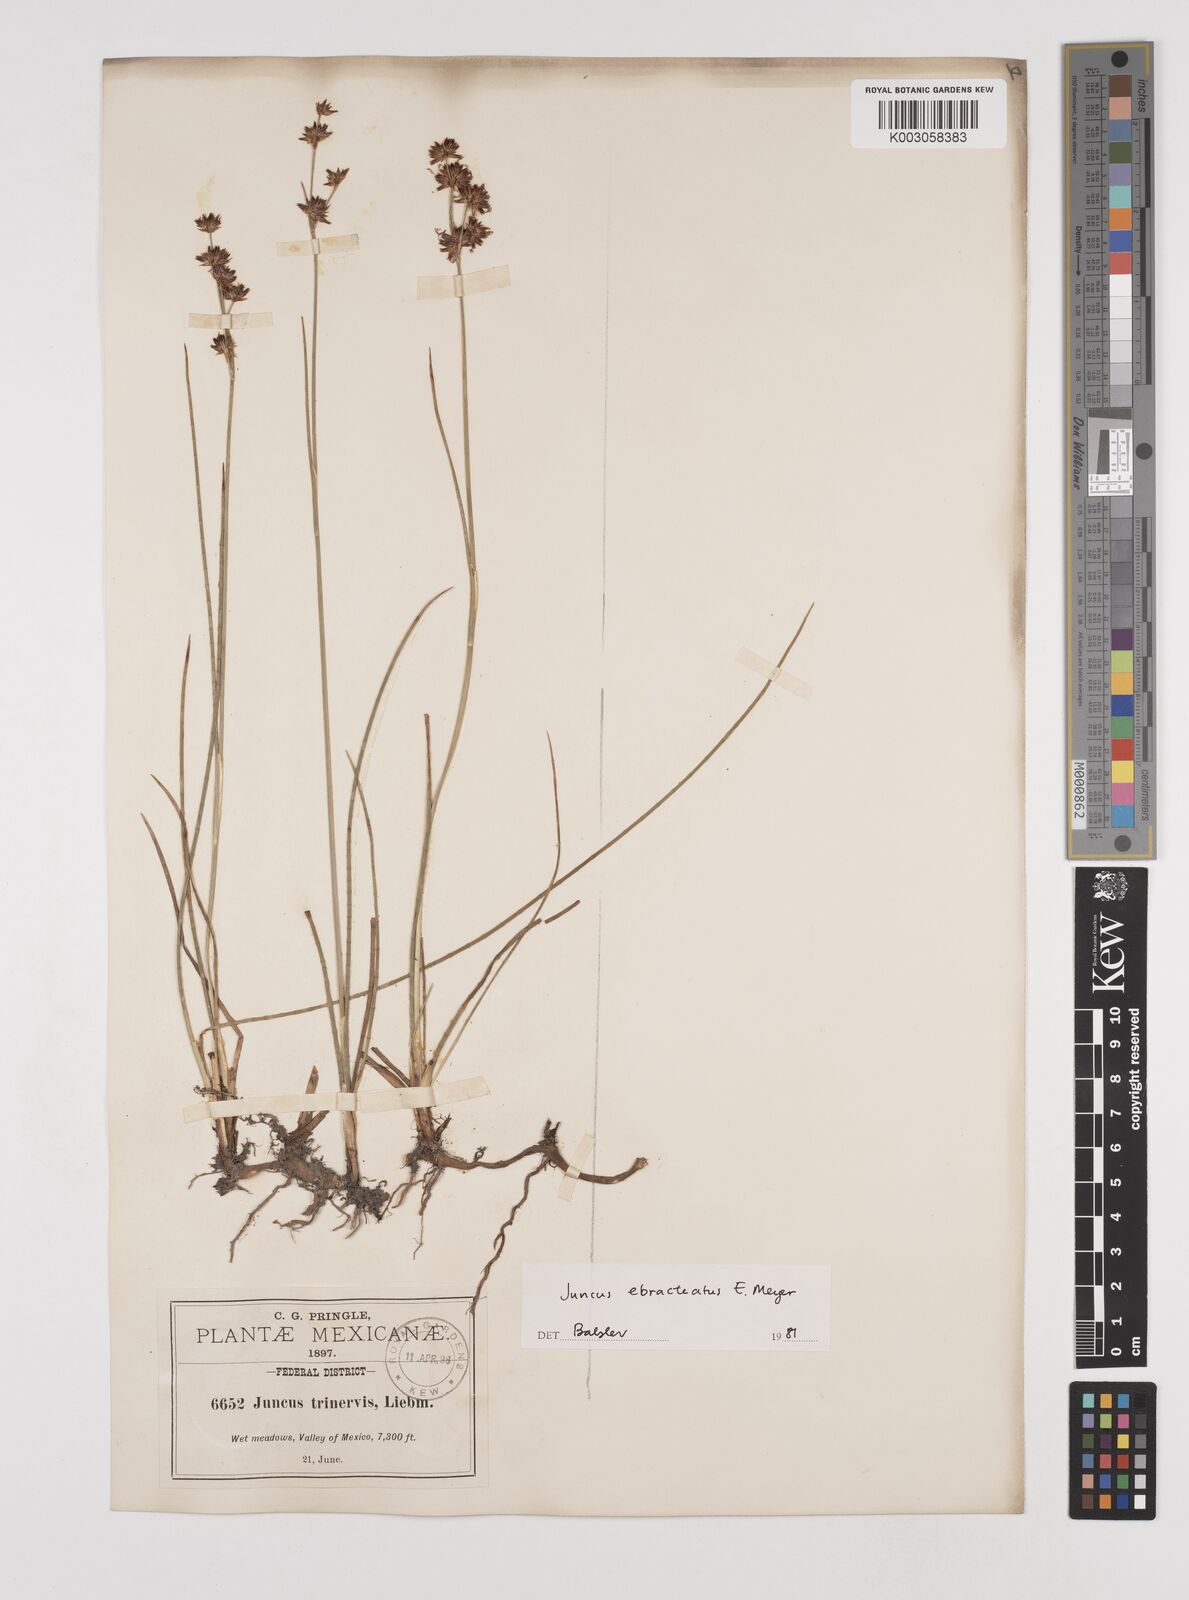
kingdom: Plantae
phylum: Tracheophyta
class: Liliopsida
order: Poales
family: Juncaceae
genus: Juncus
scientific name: Juncus ebracteatus
